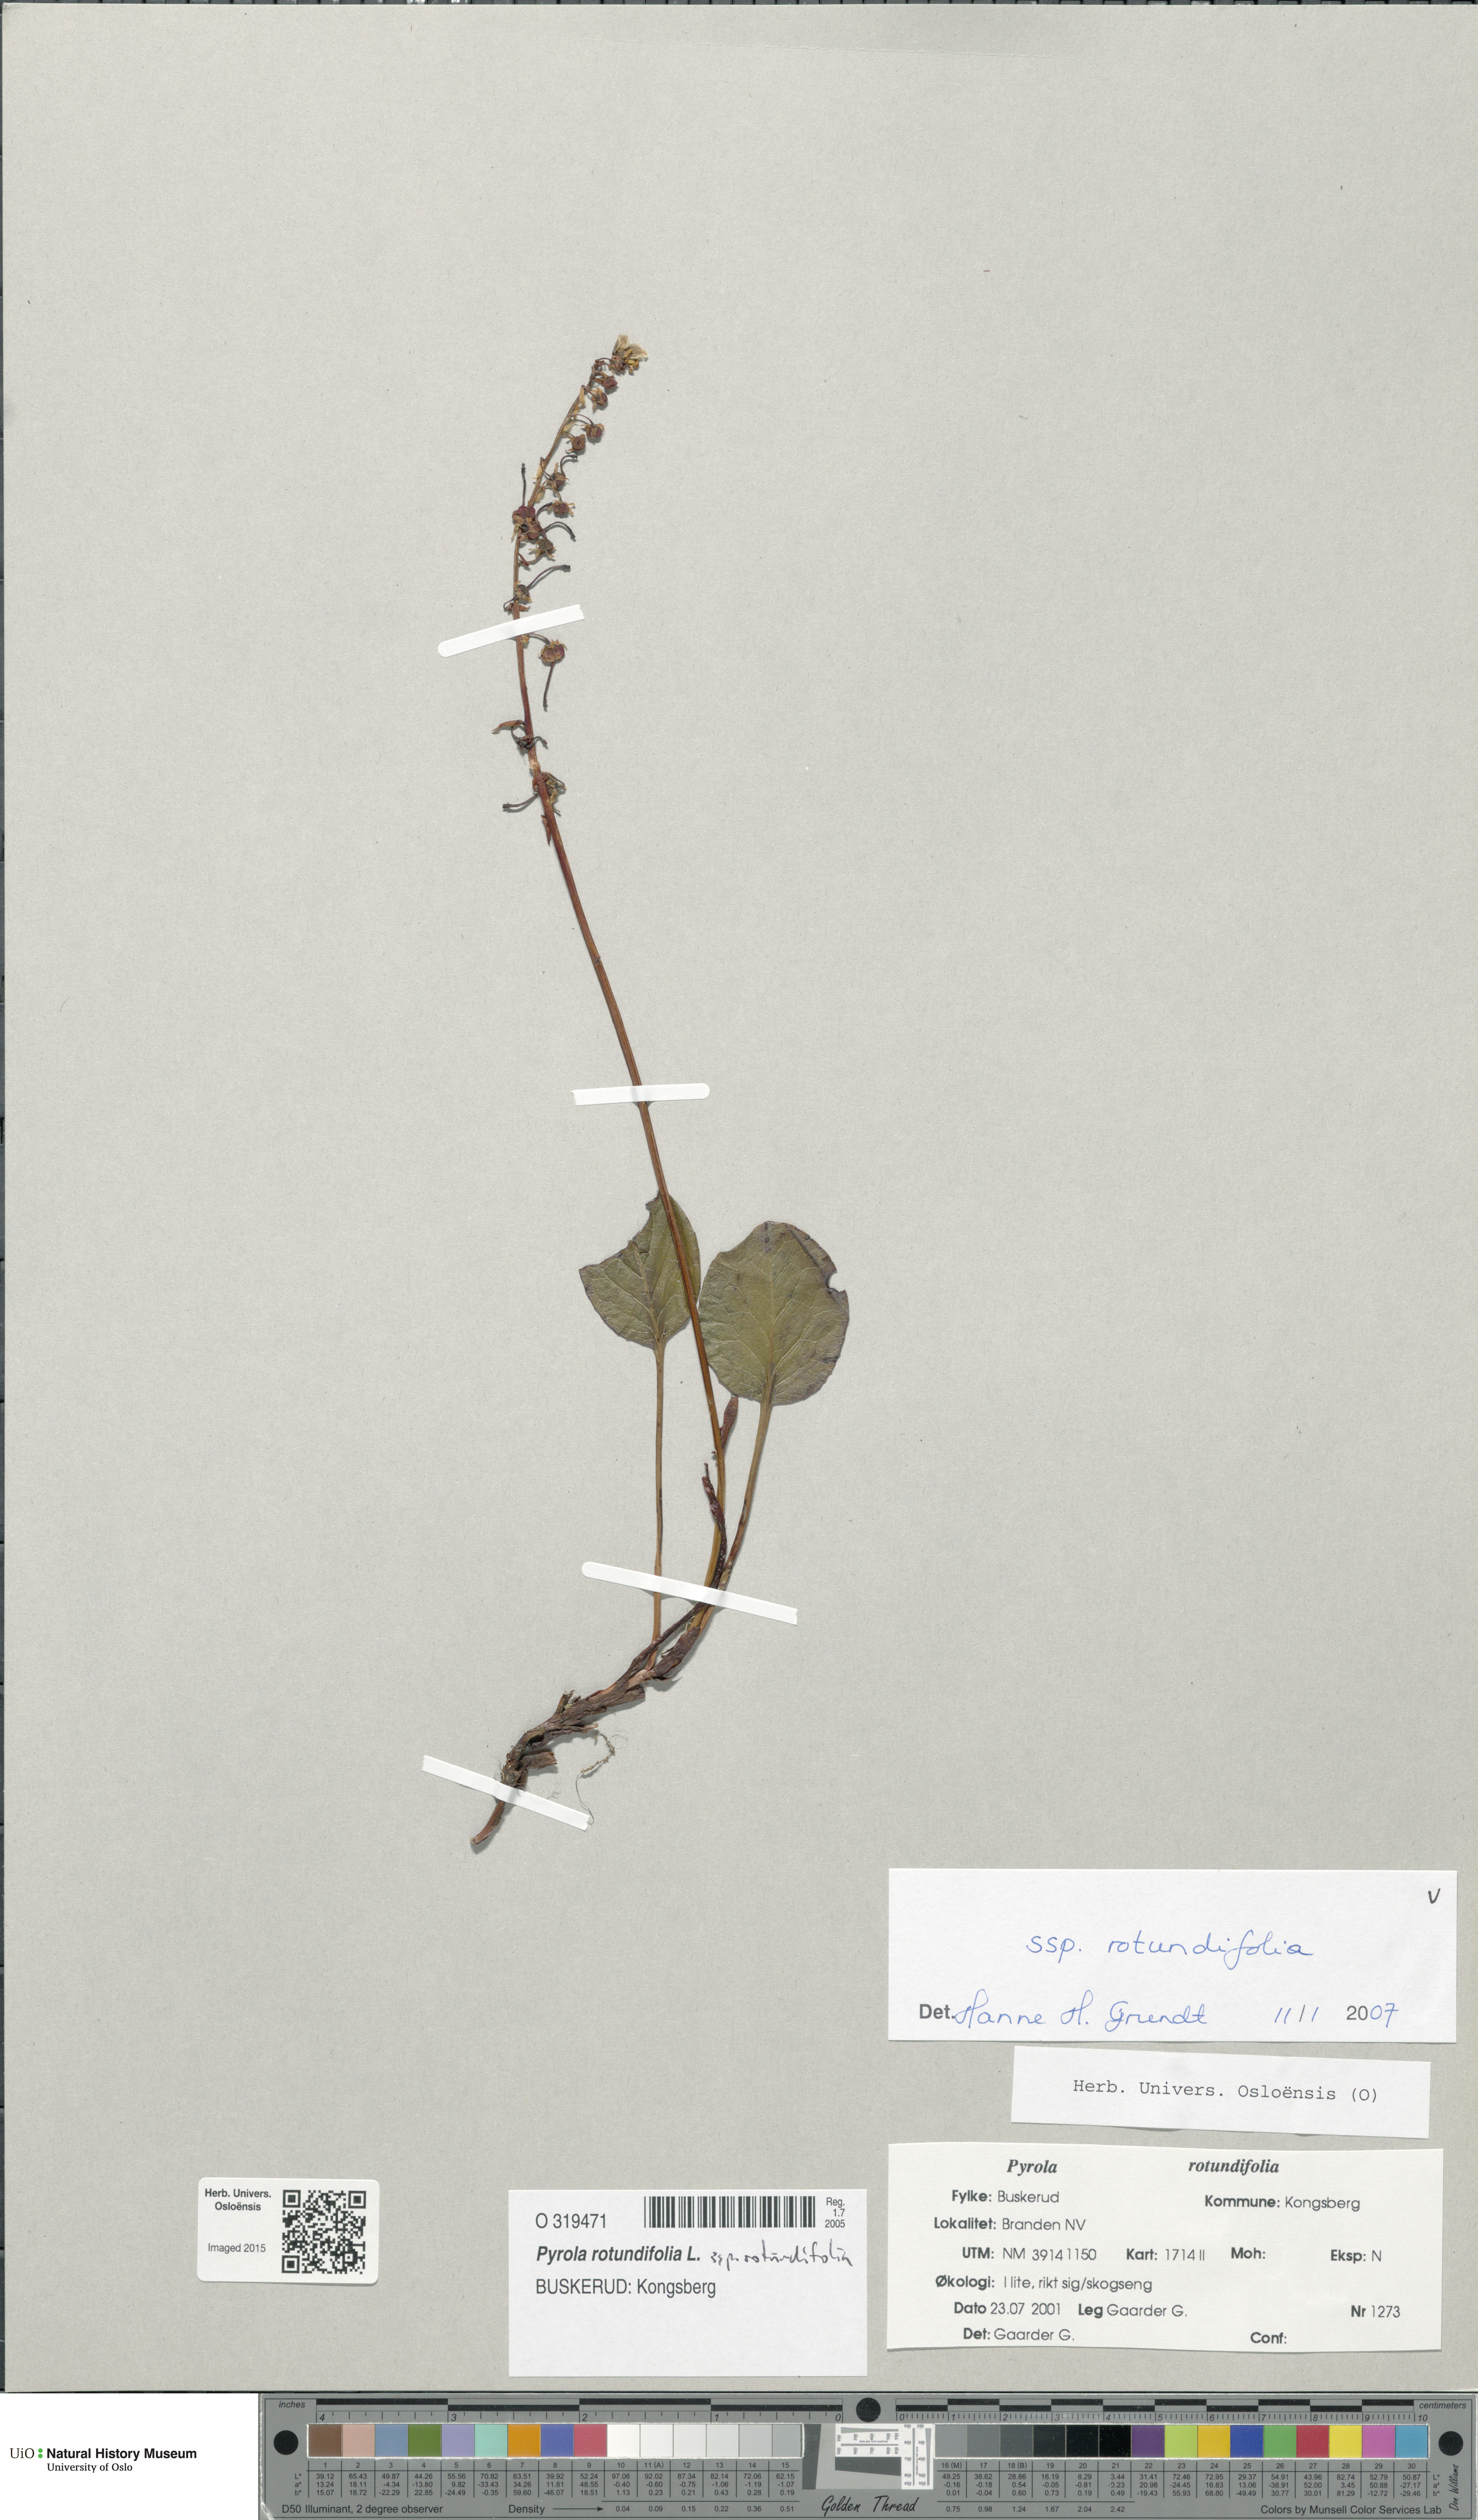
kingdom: Plantae
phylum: Tracheophyta
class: Magnoliopsida
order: Ericales
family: Ericaceae
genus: Pyrola
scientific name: Pyrola rotundifolia
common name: Round-leaved wintergreen
